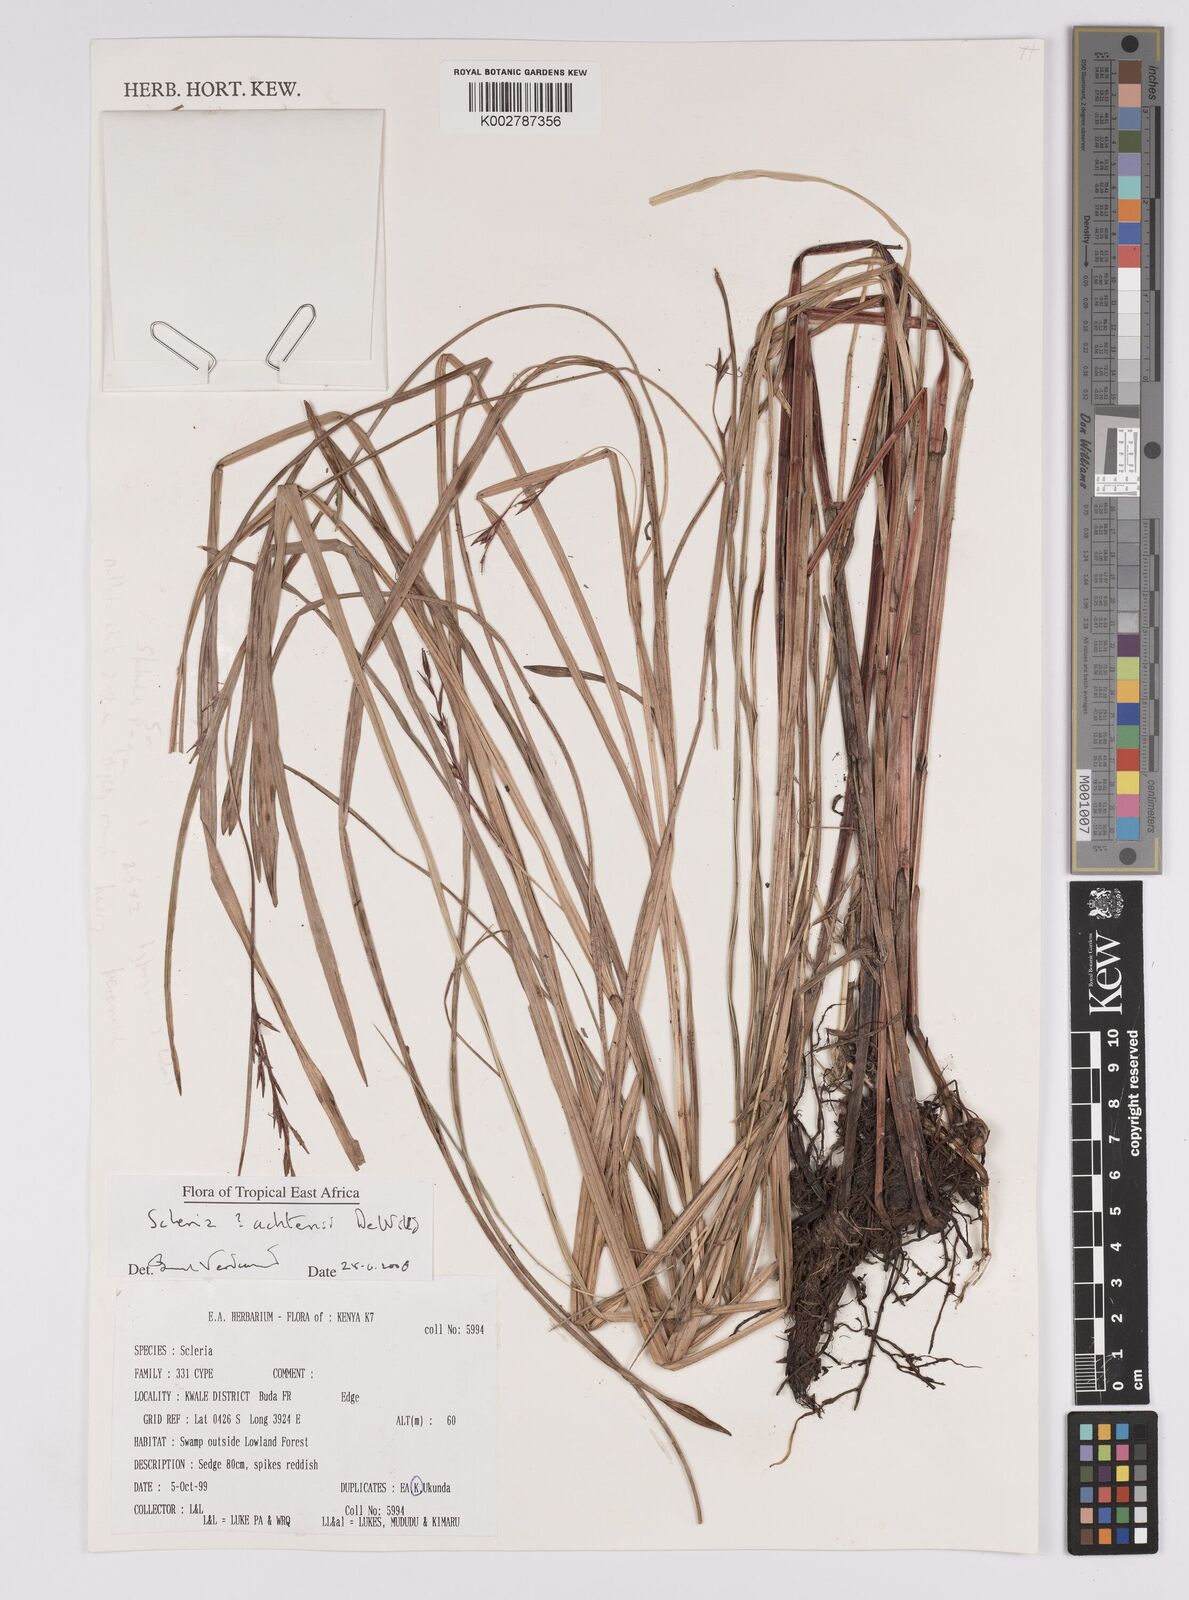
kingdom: Plantae
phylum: Tracheophyta
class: Liliopsida
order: Poales
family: Cyperaceae
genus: Scleria
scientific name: Scleria achtenii
